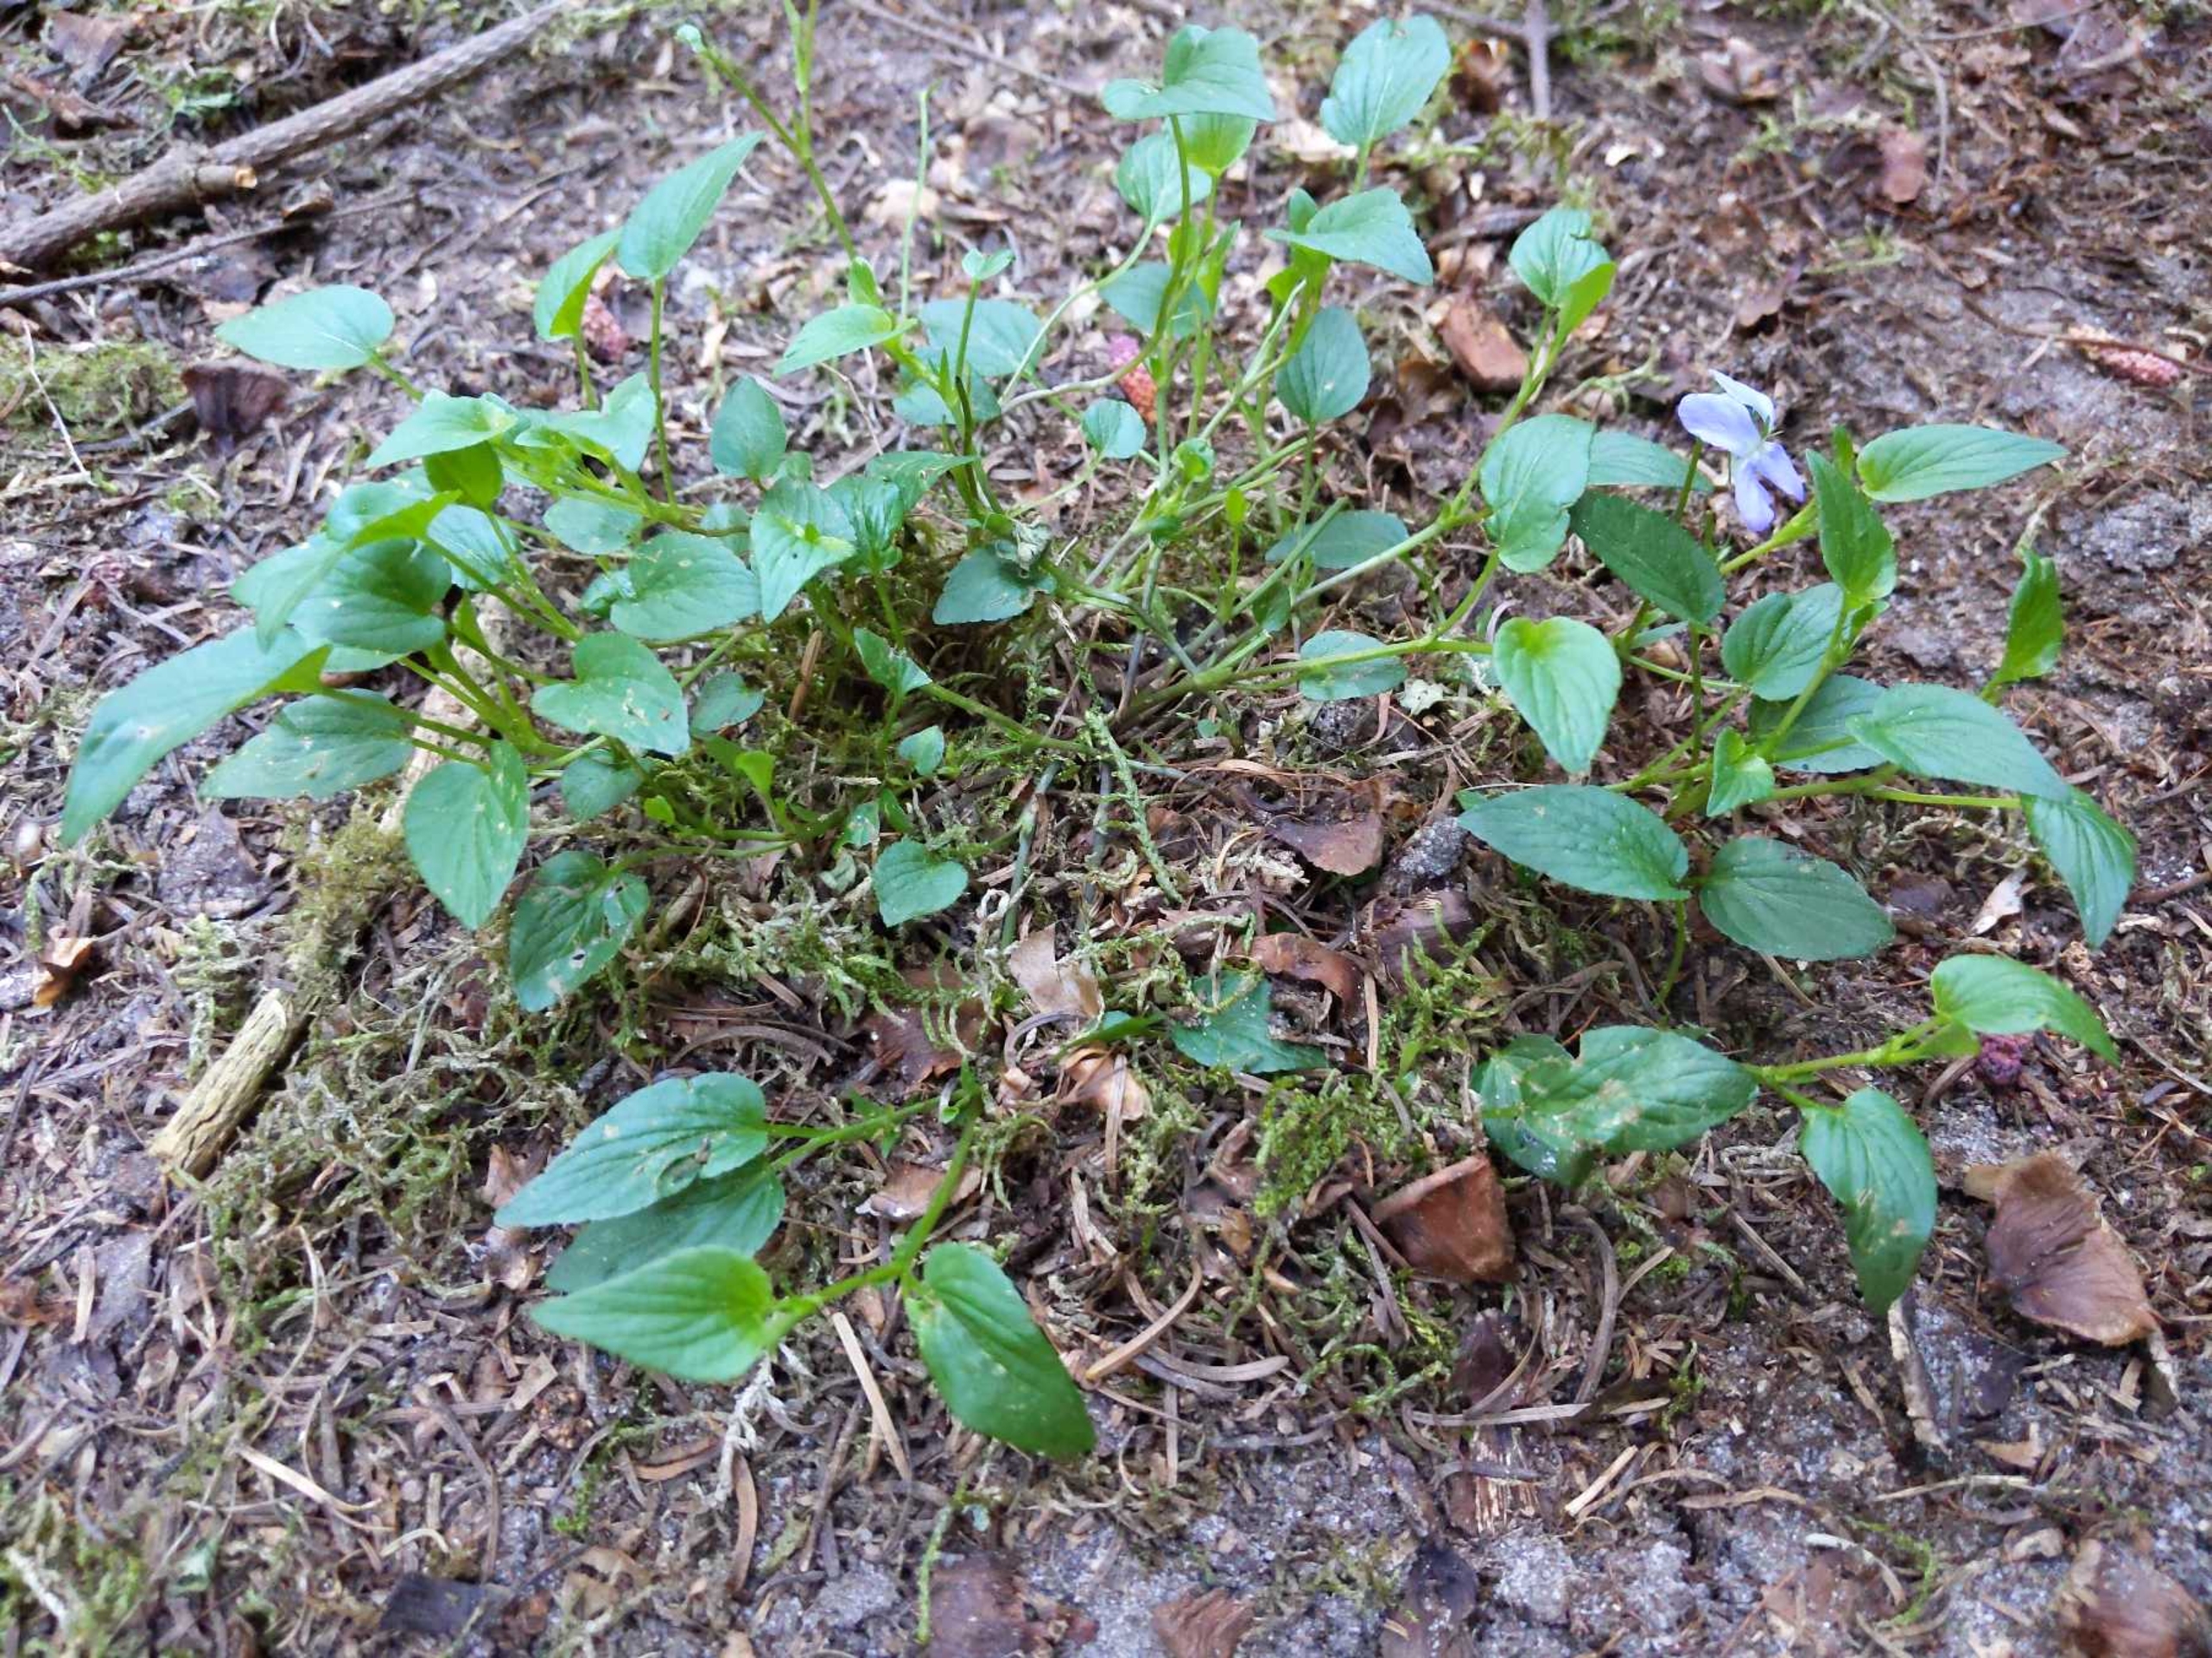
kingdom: Plantae
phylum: Tracheophyta
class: Magnoliopsida
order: Malpighiales
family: Violaceae
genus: Viola
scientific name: Viola canina
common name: Hunde-viol
